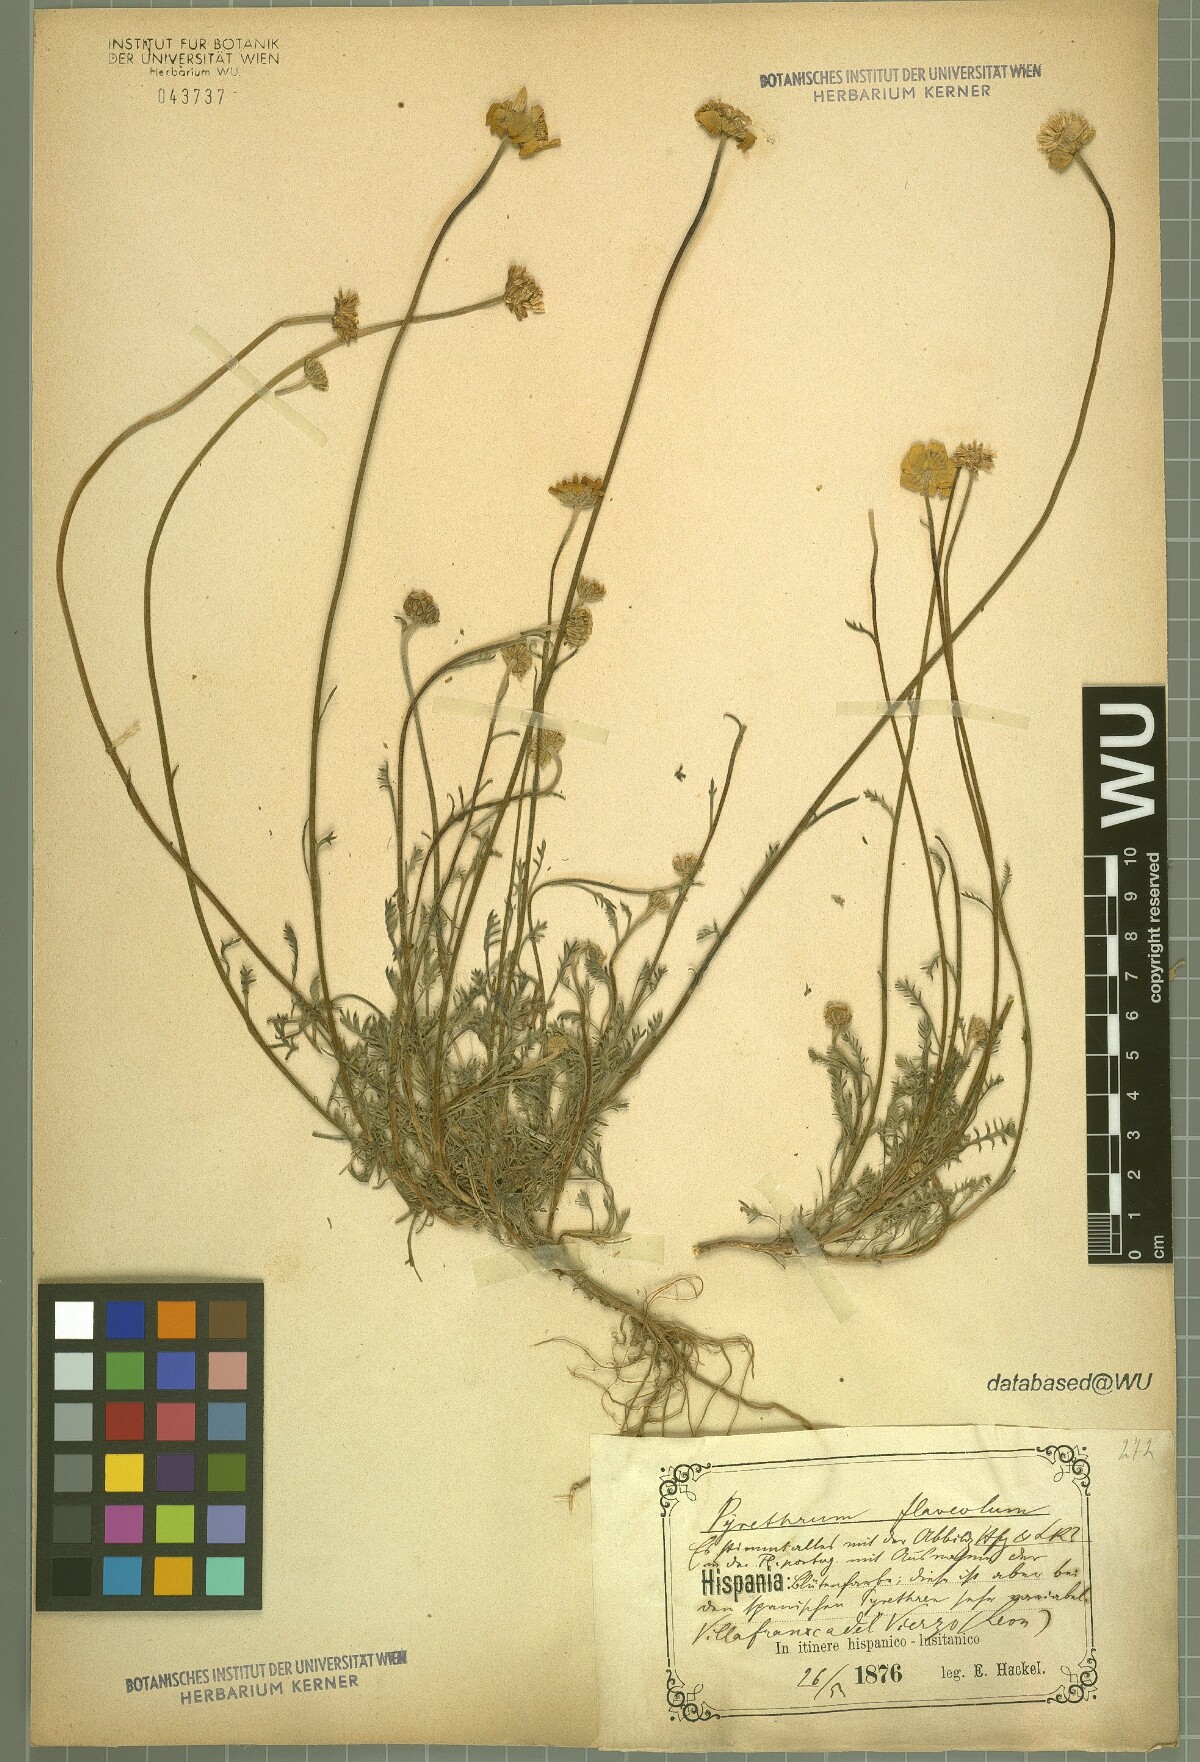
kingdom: Plantae
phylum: Tracheophyta
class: Magnoliopsida
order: Asterales
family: Asteraceae
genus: Leucanthemopsis
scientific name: Leucanthemopsis flaveola
